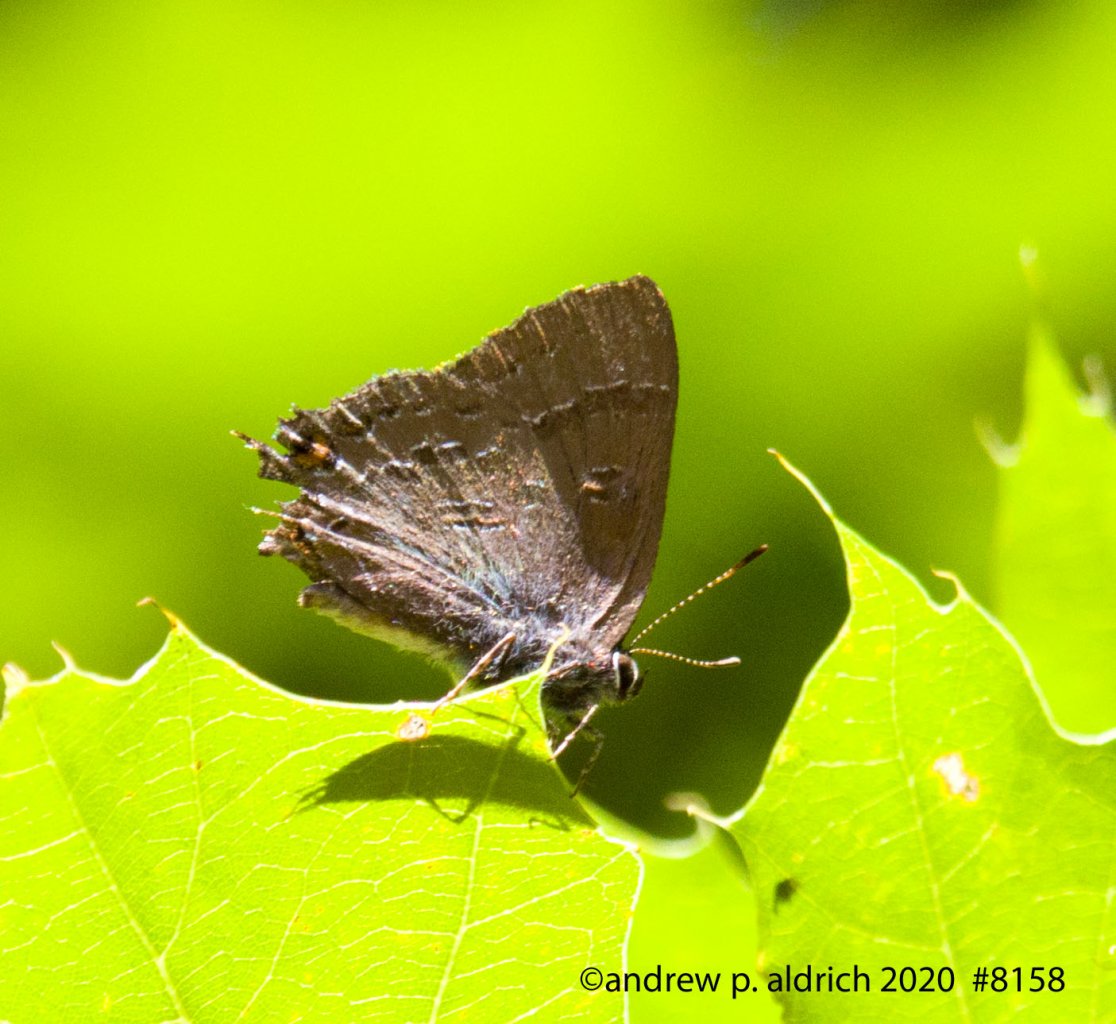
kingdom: Animalia
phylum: Arthropoda
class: Insecta
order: Lepidoptera
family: Lycaenidae
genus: Satyrium
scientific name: Satyrium calanus
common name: Banded Hairstreak
